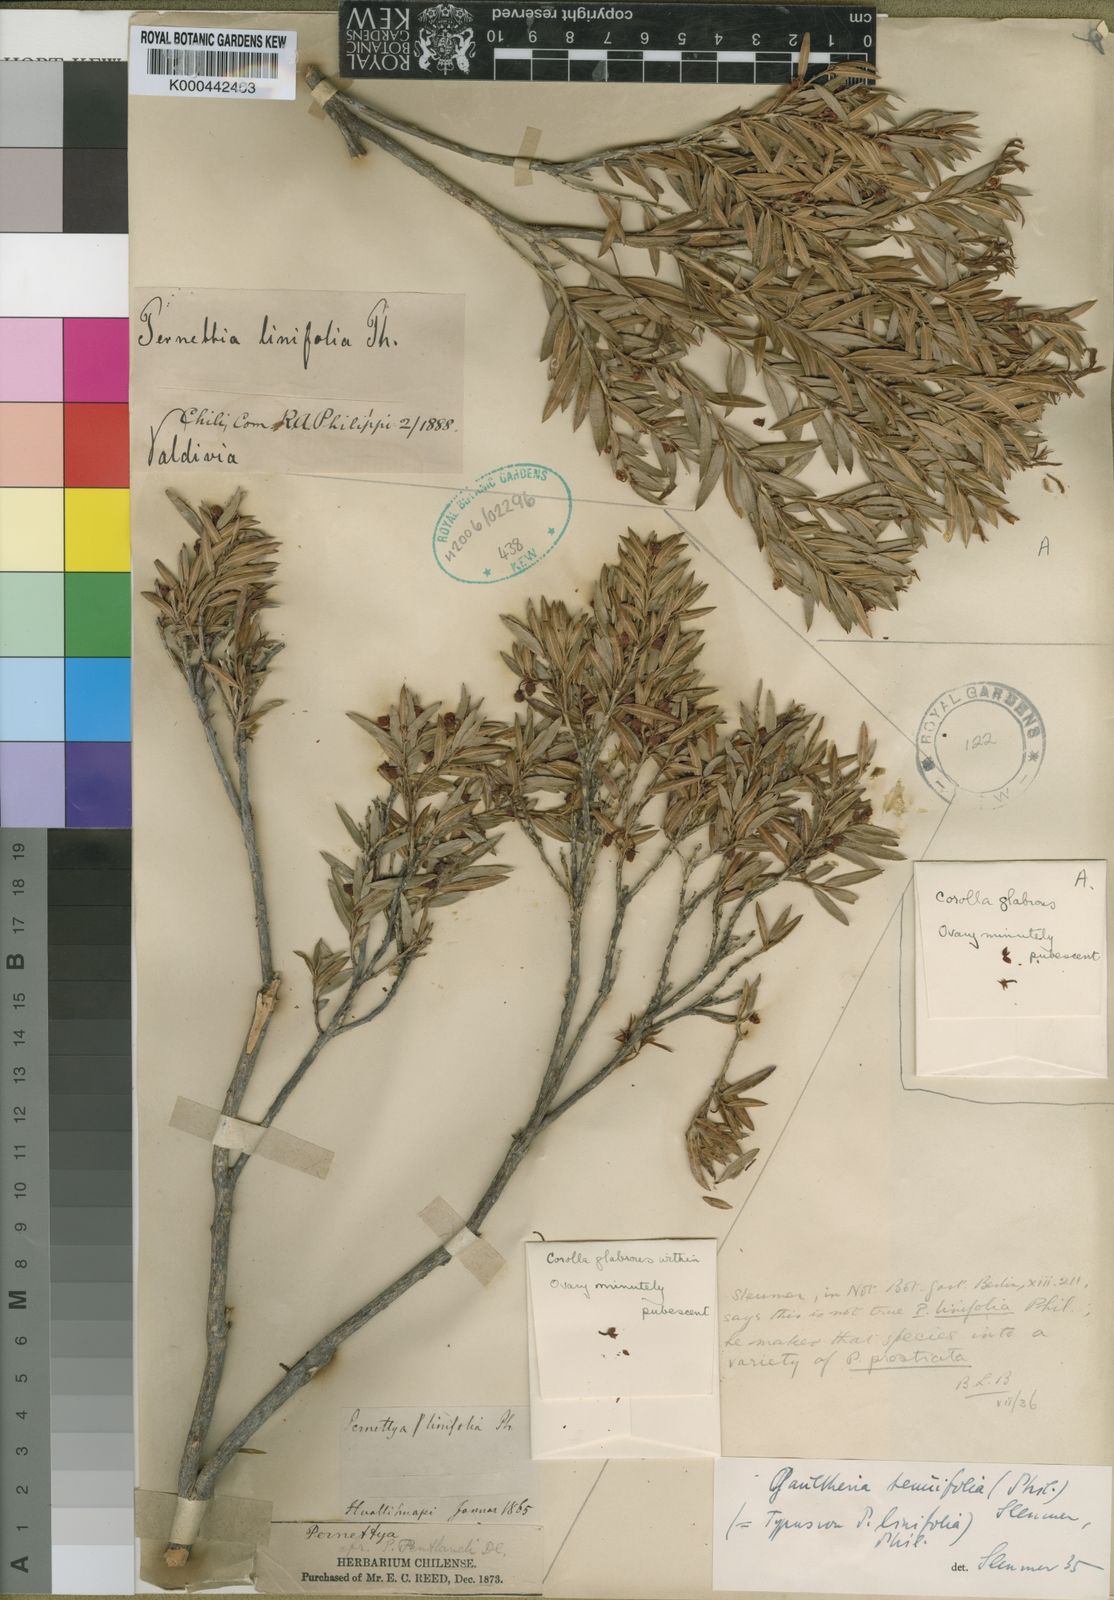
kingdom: Plantae
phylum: Tracheophyta
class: Magnoliopsida
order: Ericales
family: Ericaceae
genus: Gaultheria
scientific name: Gaultheria linifolia
